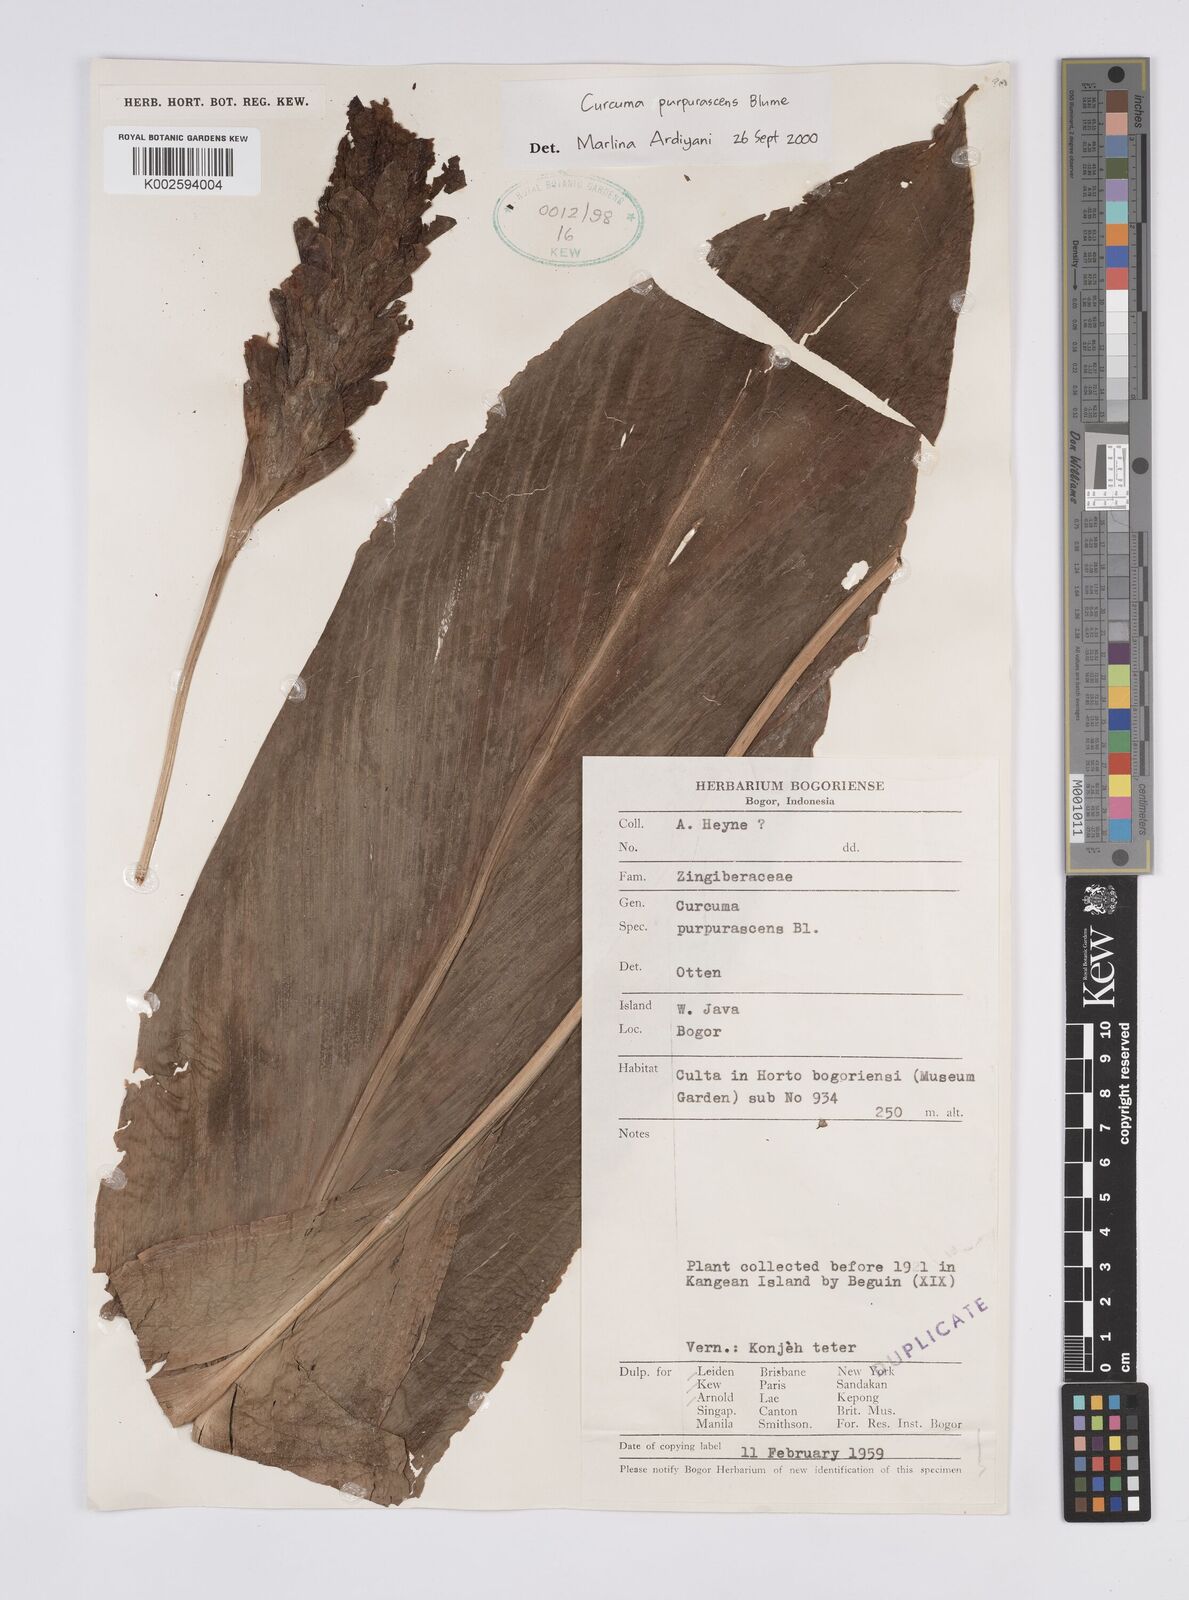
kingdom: Plantae
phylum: Tracheophyta
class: Liliopsida
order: Zingiberales
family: Zingiberaceae
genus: Curcuma
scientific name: Curcuma purpurascens
